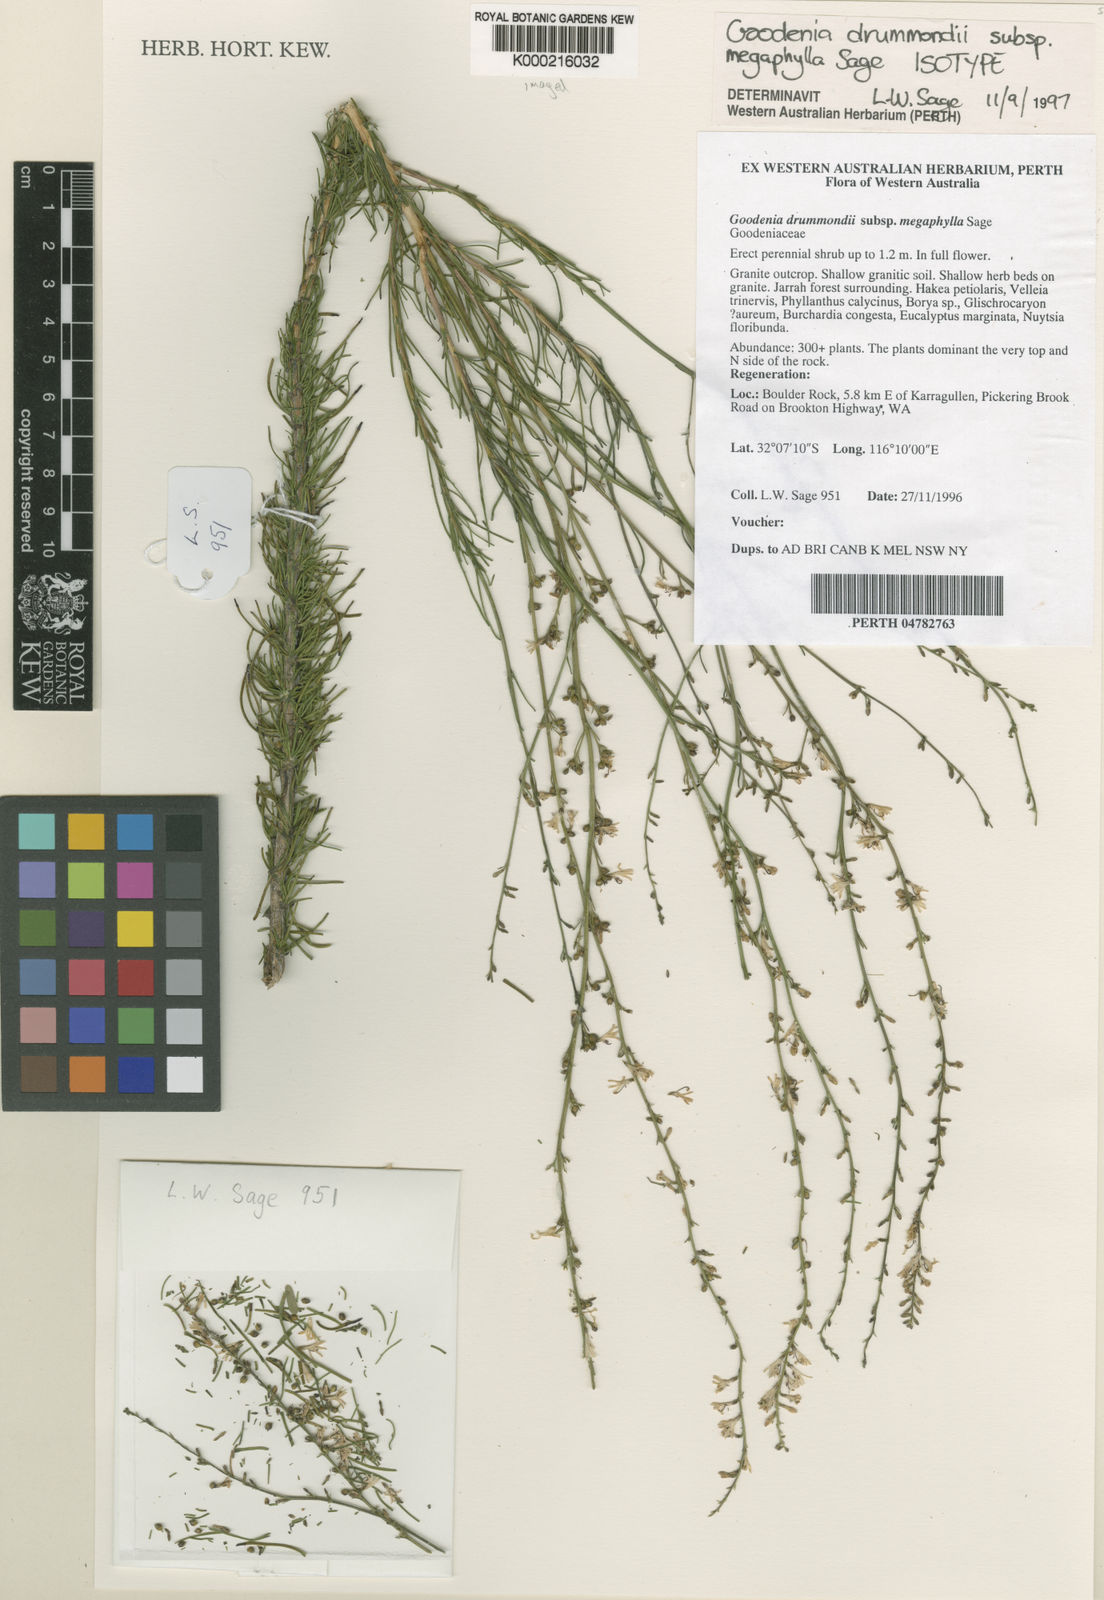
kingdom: Plantae
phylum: Tracheophyta
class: Magnoliopsida
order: Asterales
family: Goodeniaceae
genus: Goodenia
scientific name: Goodenia drummondii
